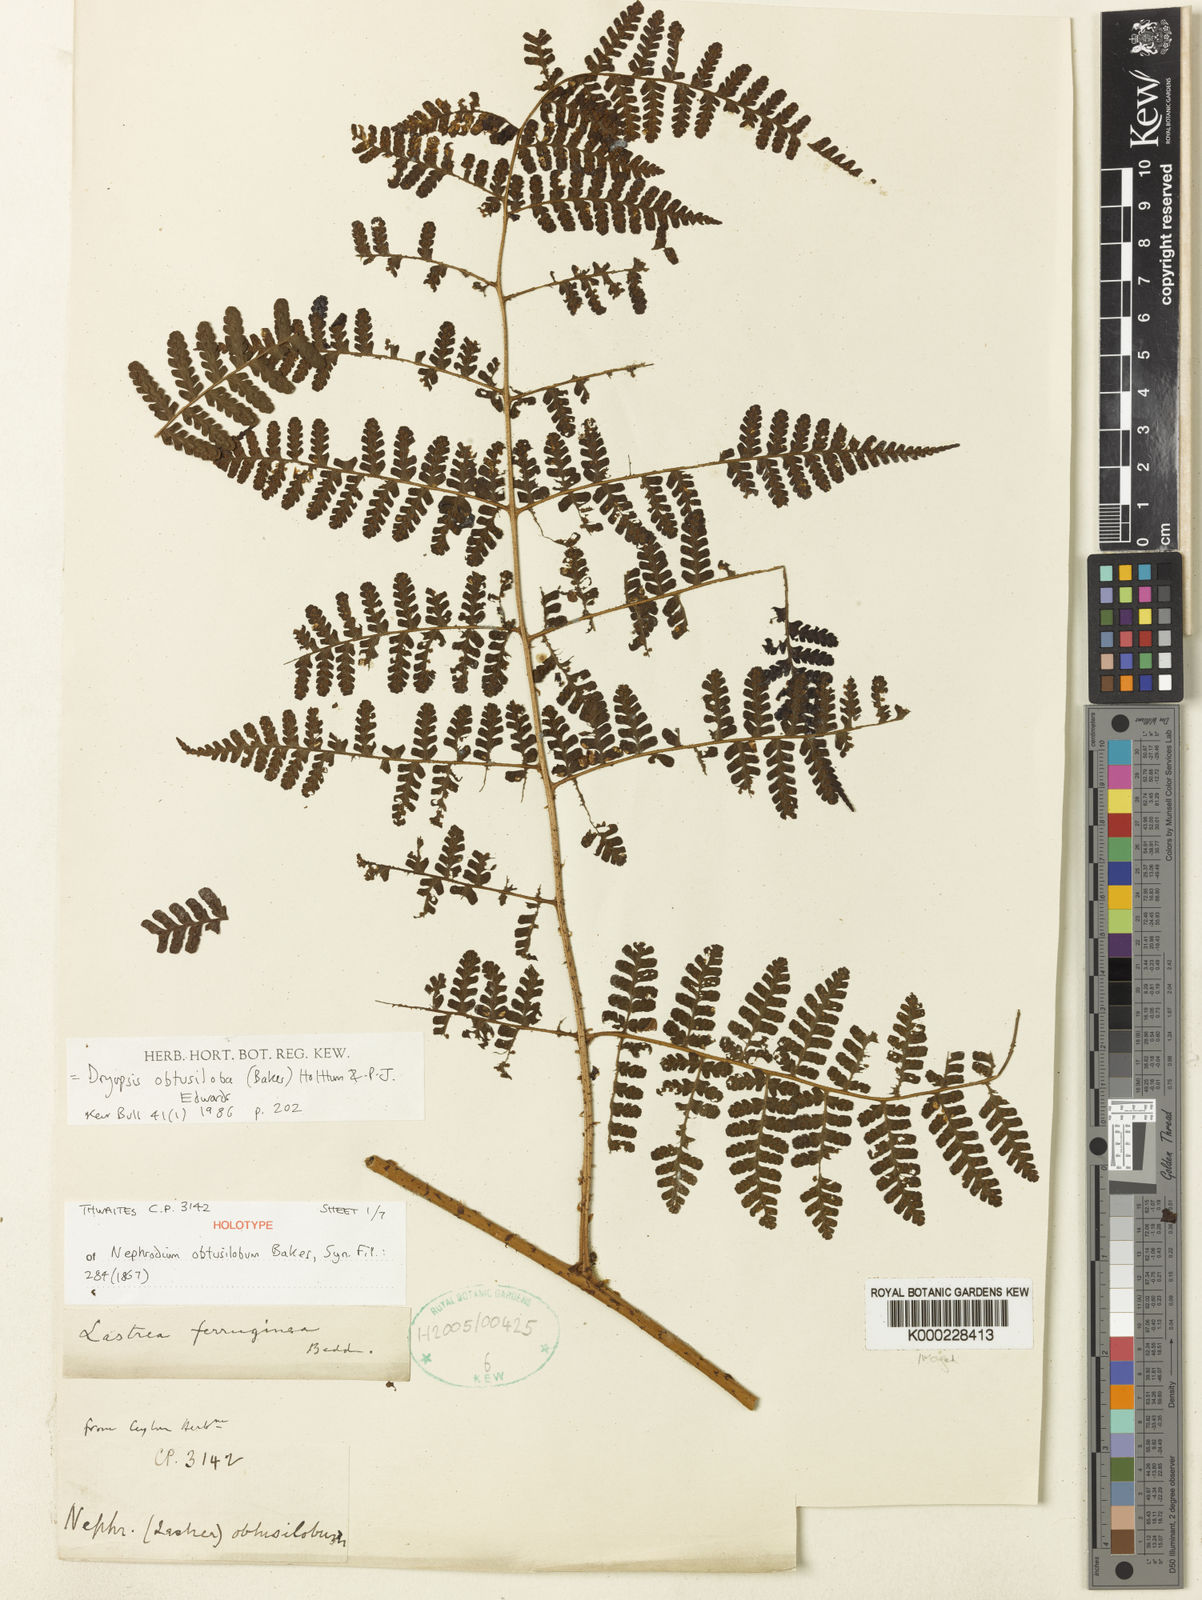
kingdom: Plantae
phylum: Tracheophyta
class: Polypodiopsida
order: Polypodiales
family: Dryopteridaceae
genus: Dryopteris
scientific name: Dryopteris obtusiloba
